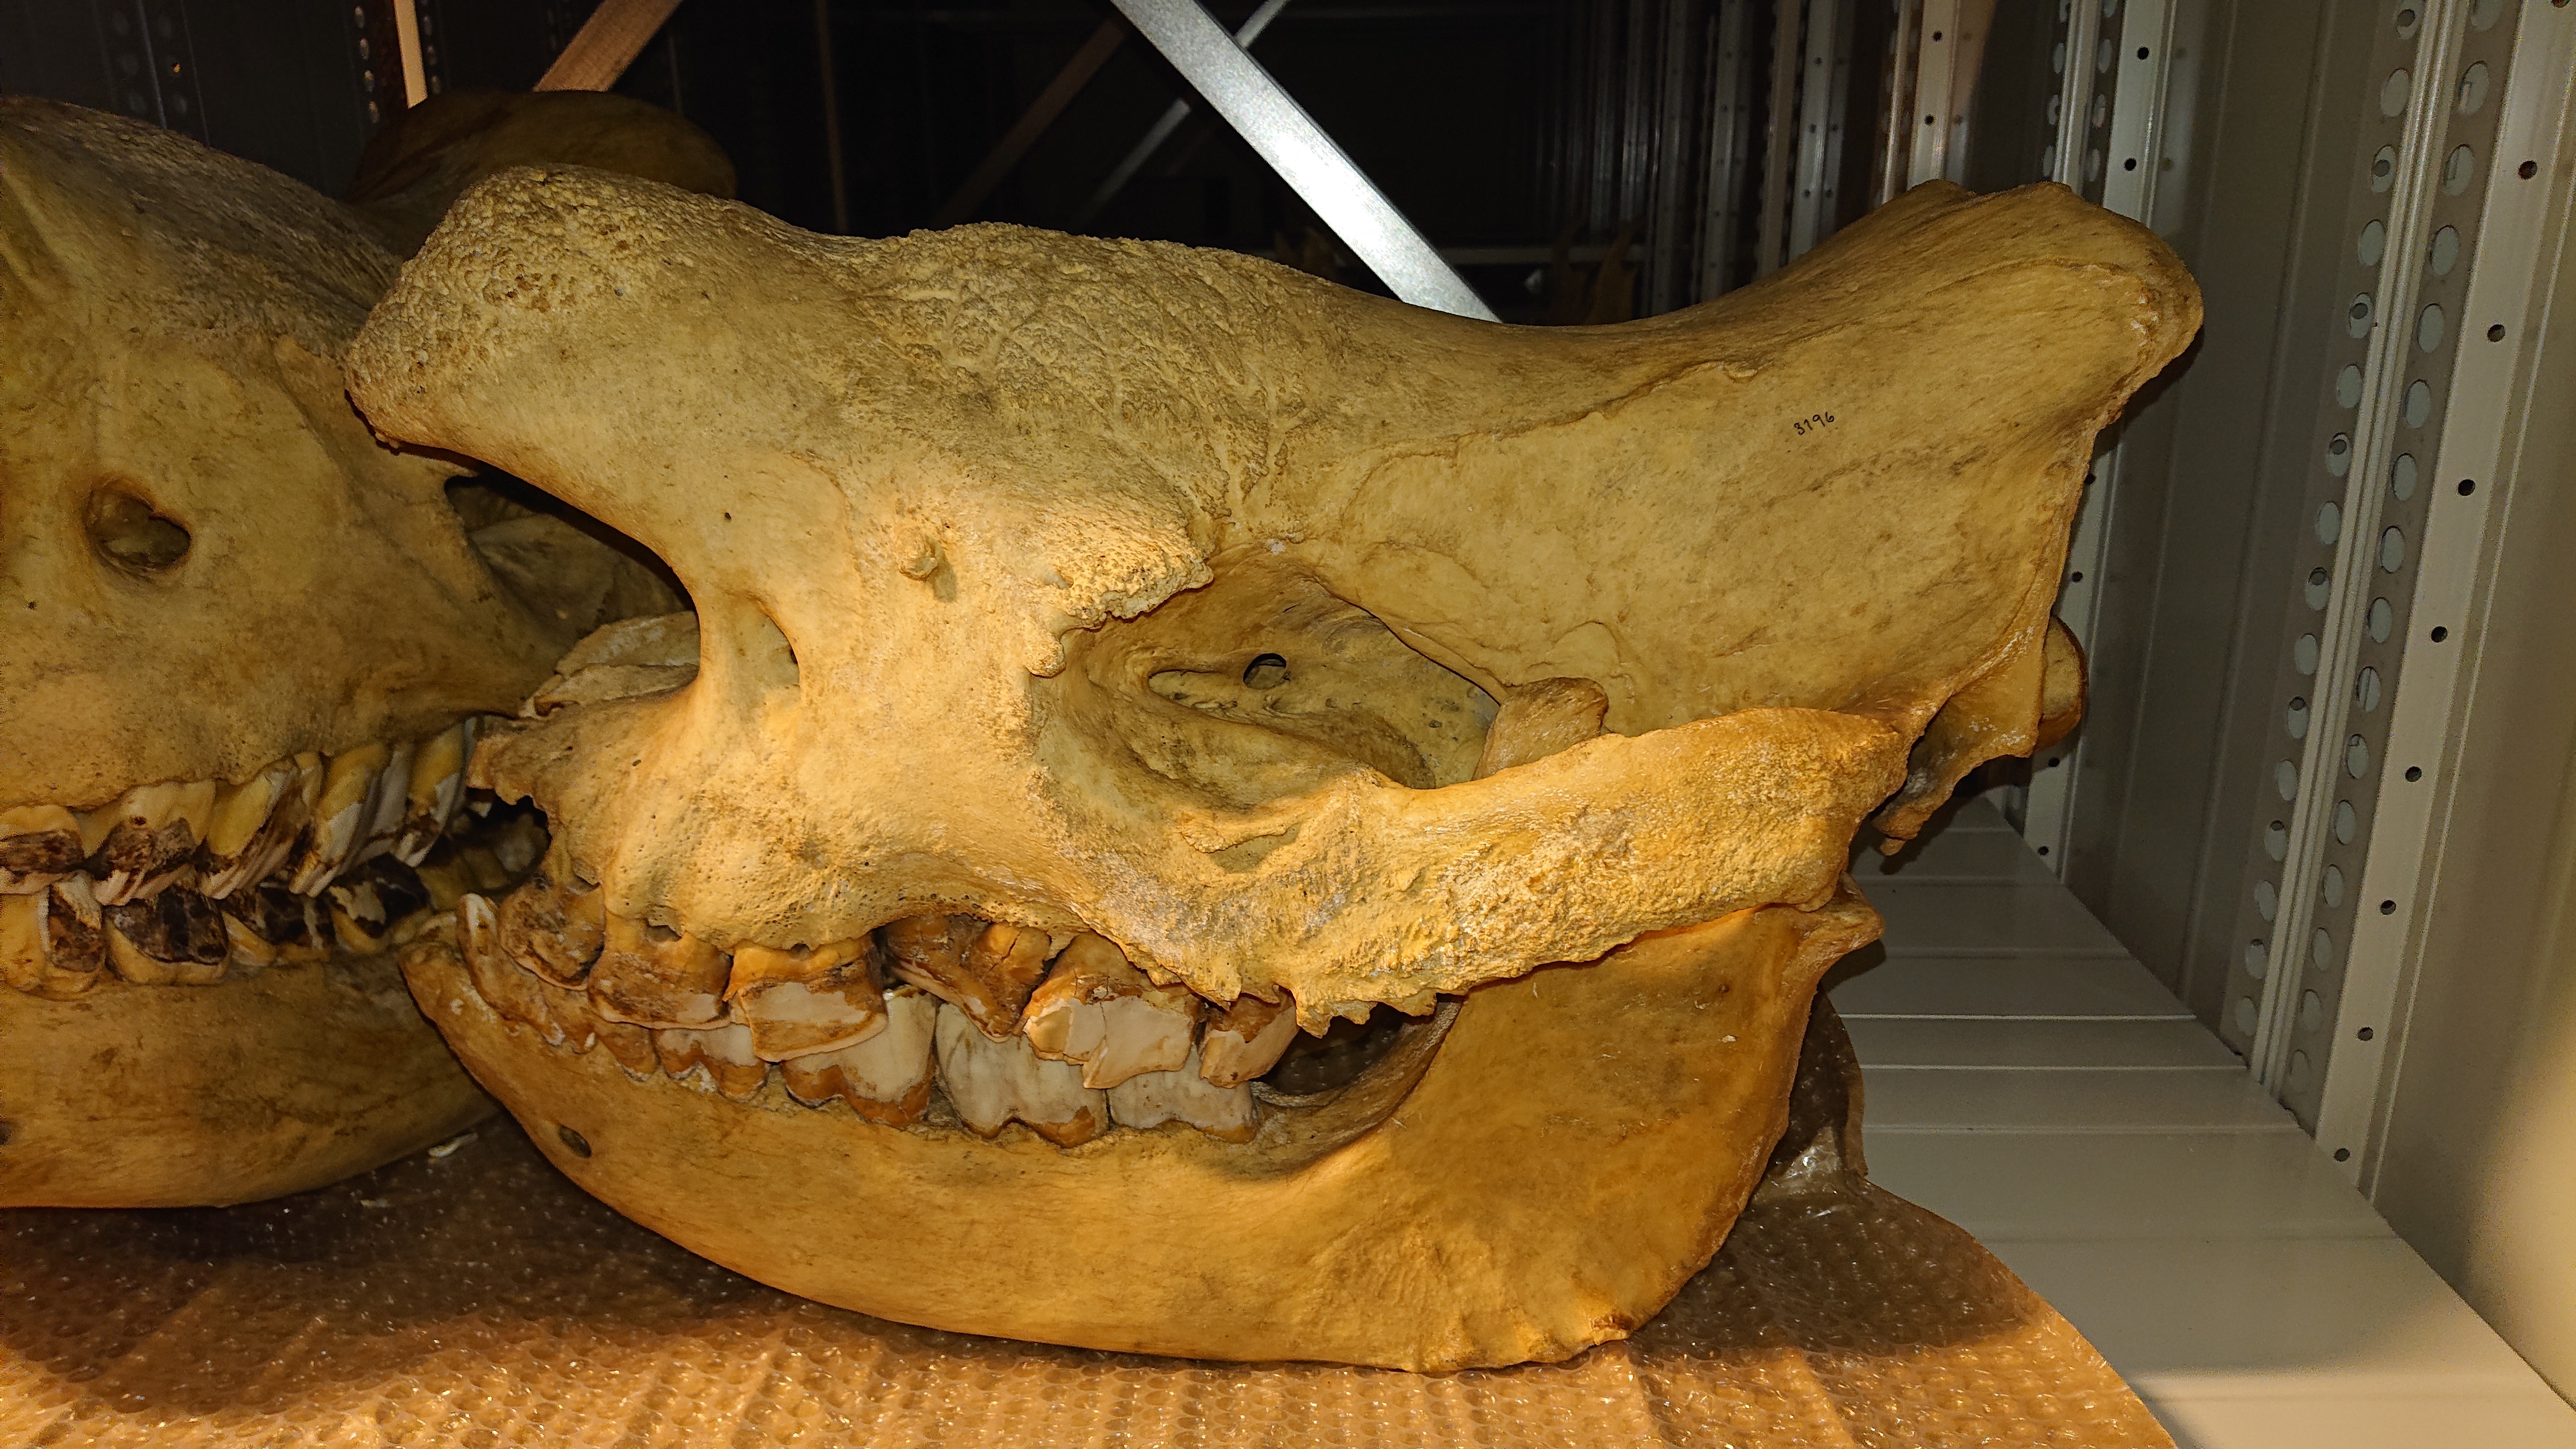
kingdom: Animalia
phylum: Chordata
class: Mammalia
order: Perissodactyla
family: Rhinocerotidae
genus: Diceros
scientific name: Diceros bicornis
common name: Black rhinoceros
